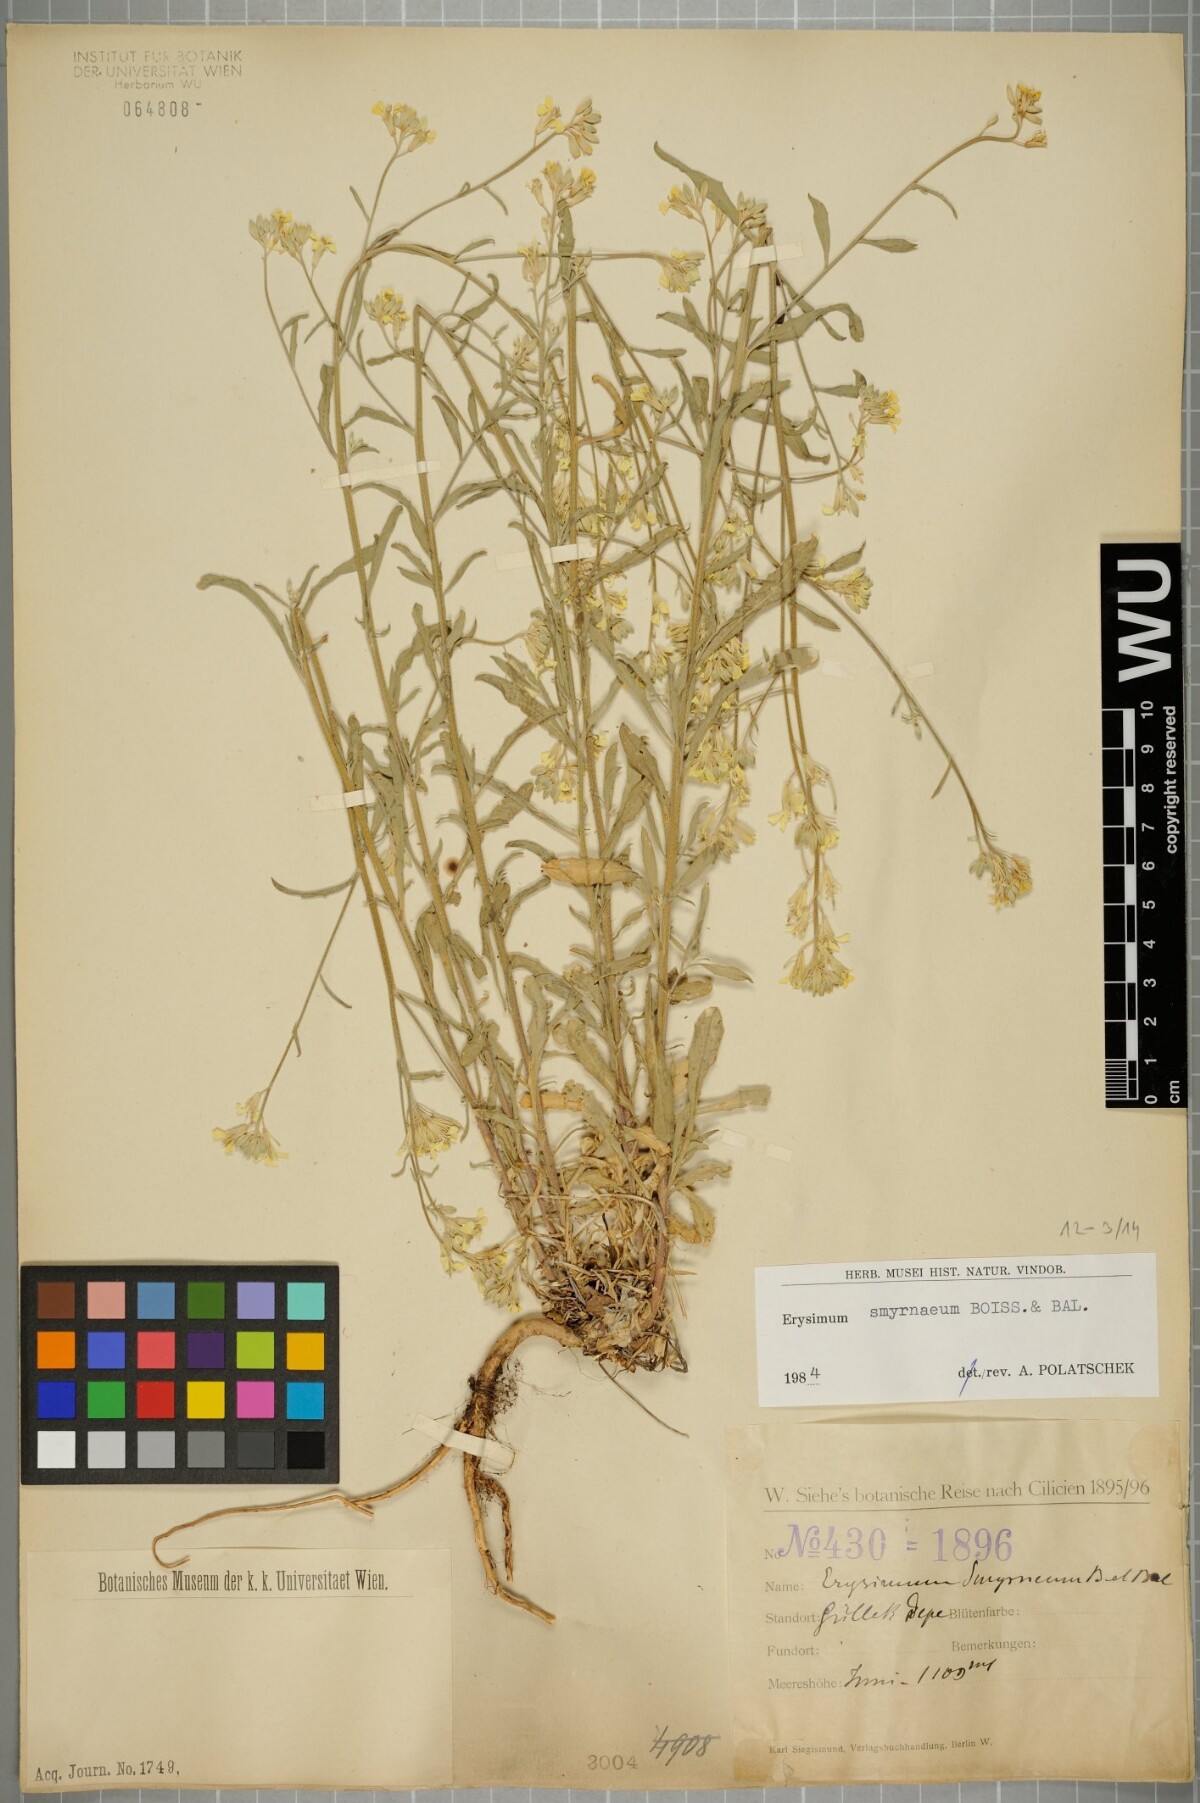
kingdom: Plantae
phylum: Tracheophyta
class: Magnoliopsida
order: Brassicales
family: Brassicaceae
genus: Erysimum
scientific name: Erysimum smyrnaeum
